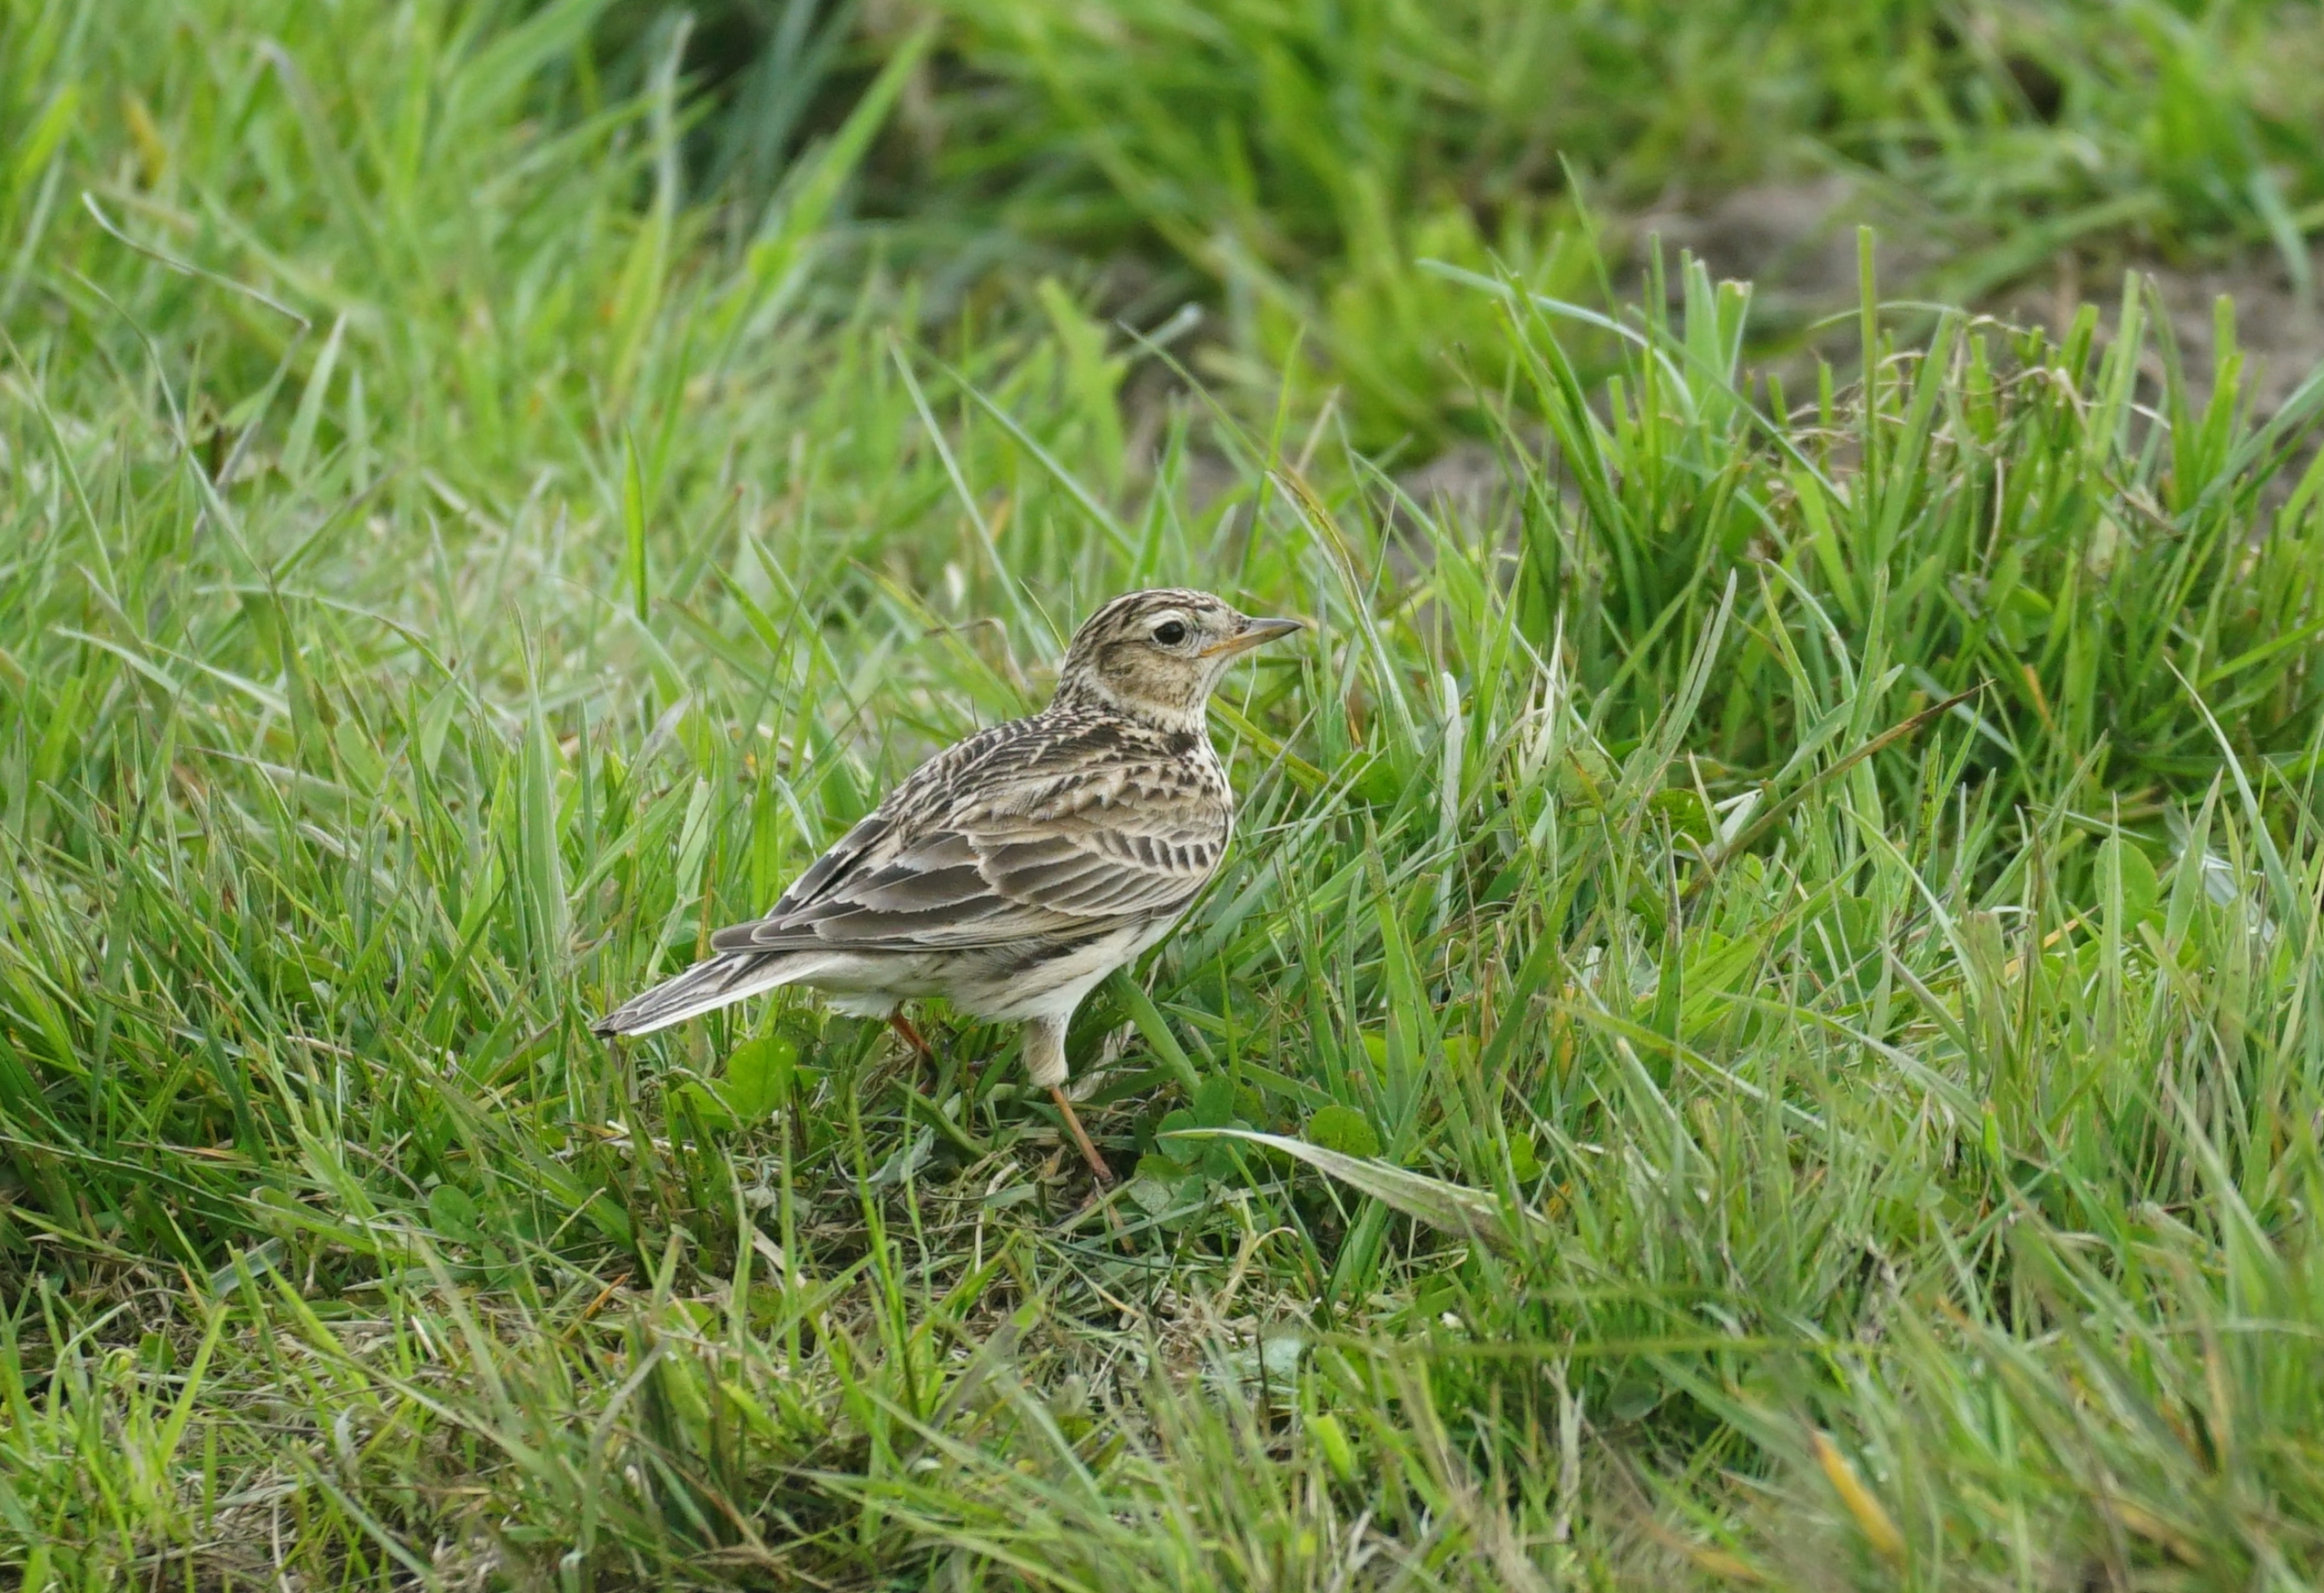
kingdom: Animalia
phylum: Chordata
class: Aves
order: Passeriformes
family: Alaudidae
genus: Alauda
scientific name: Alauda arvensis
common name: Sanglærke
